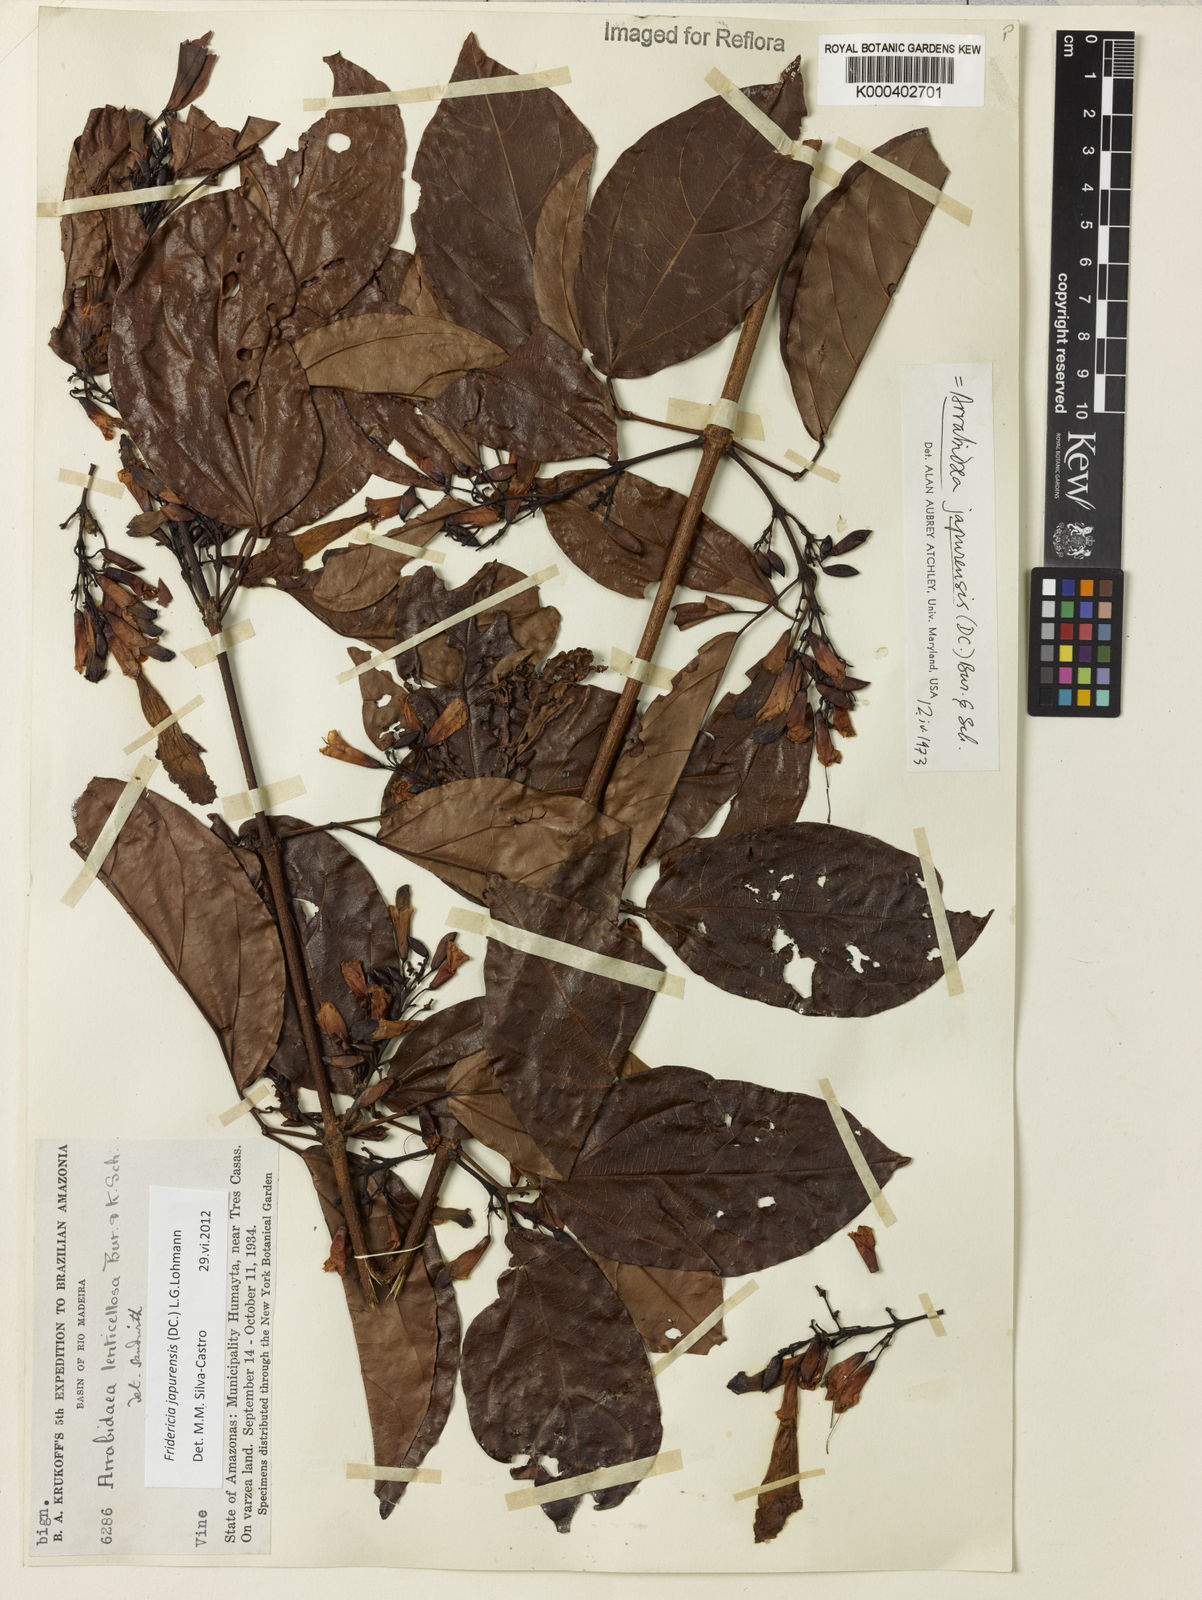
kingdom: Plantae
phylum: Tracheophyta
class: Magnoliopsida
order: Lamiales
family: Bignoniaceae
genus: Fridericia
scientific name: Fridericia japurensis
